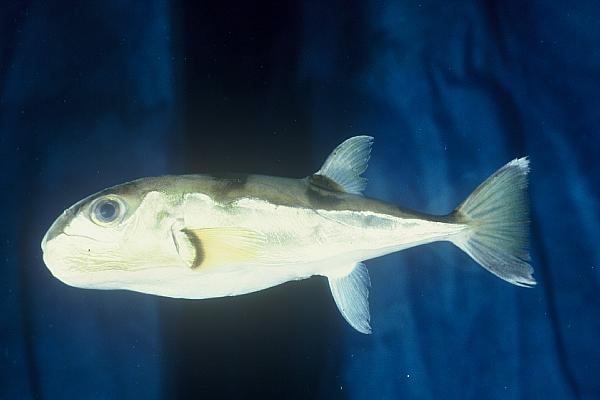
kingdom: Animalia
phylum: Chordata
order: Tetraodontiformes
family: Tetraodontidae
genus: Lagocephalus
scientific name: Lagocephalus guentheri
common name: Diamondback puffer
